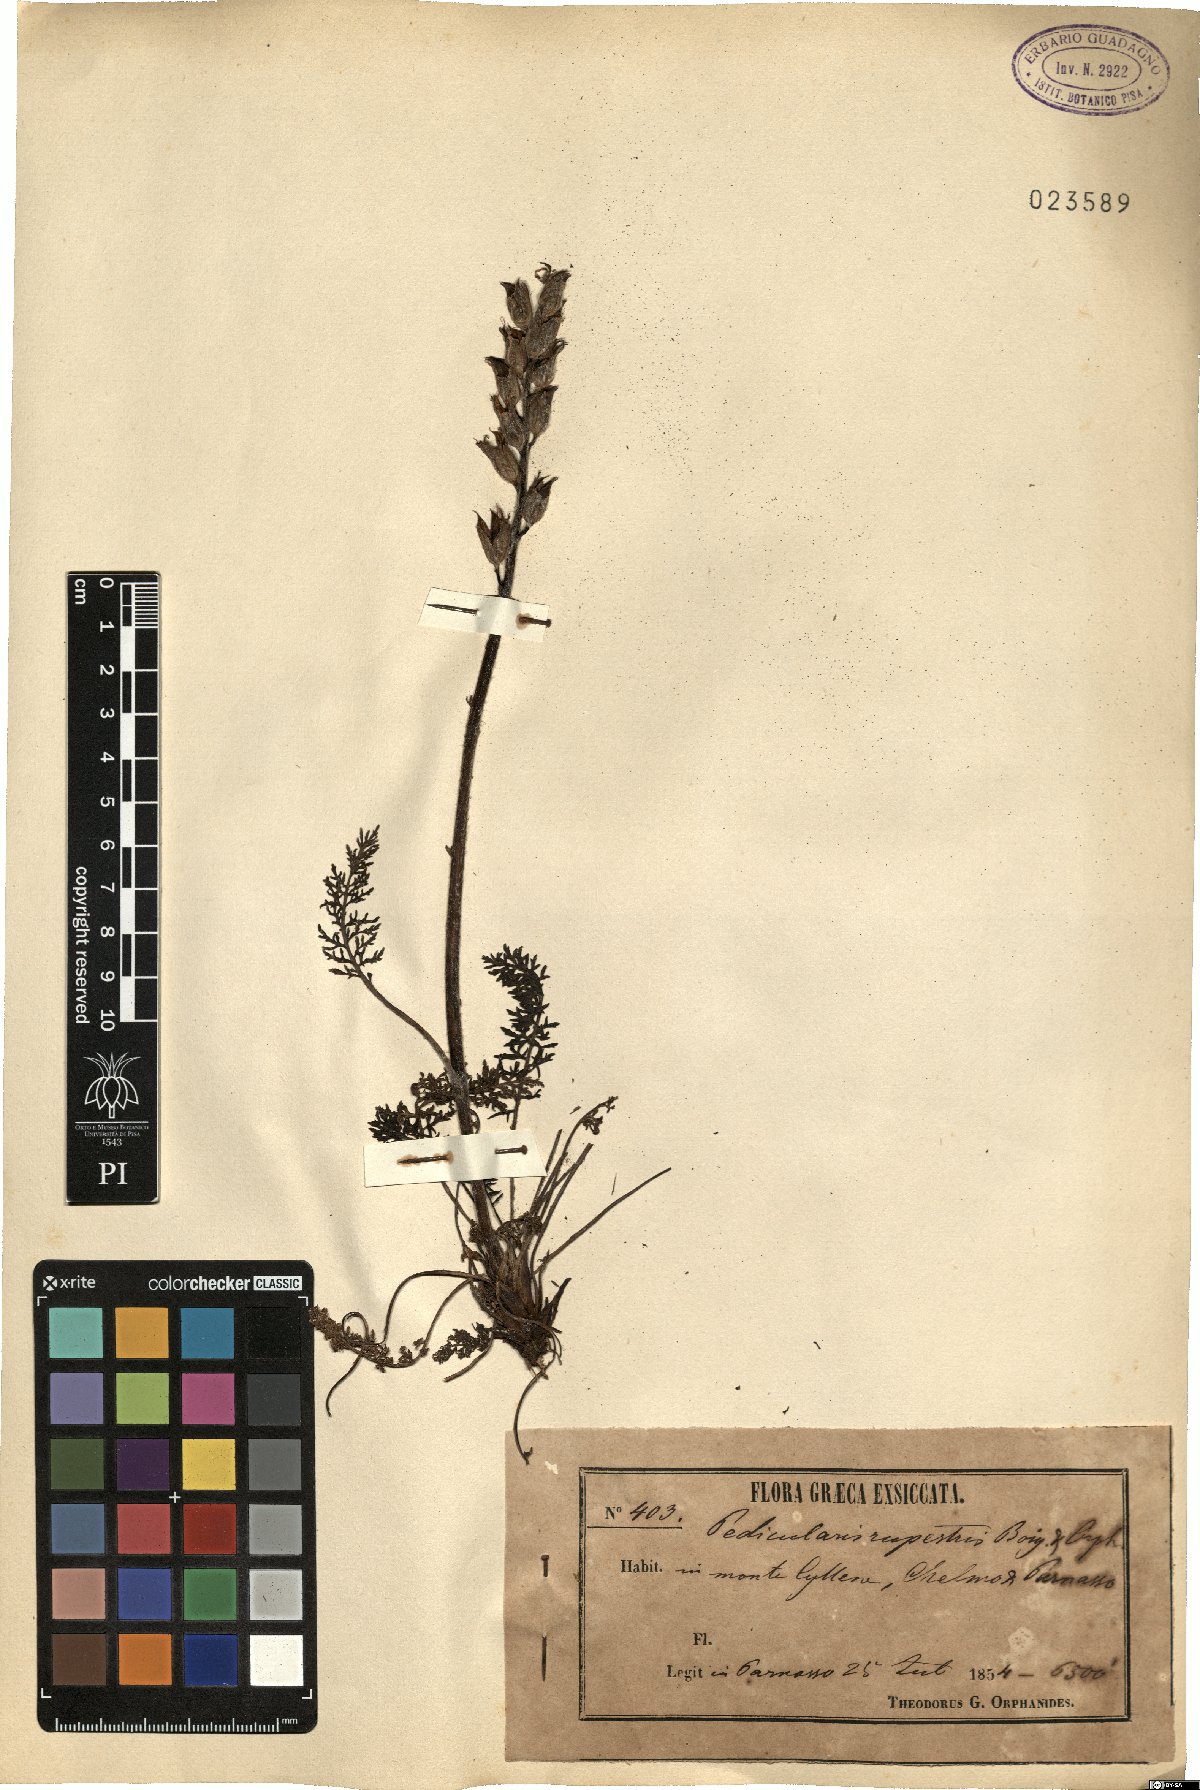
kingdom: Plantae
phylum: Tracheophyta
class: Magnoliopsida
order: Lamiales
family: Orobanchaceae
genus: Pedicularis
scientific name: Pedicularis graeca
